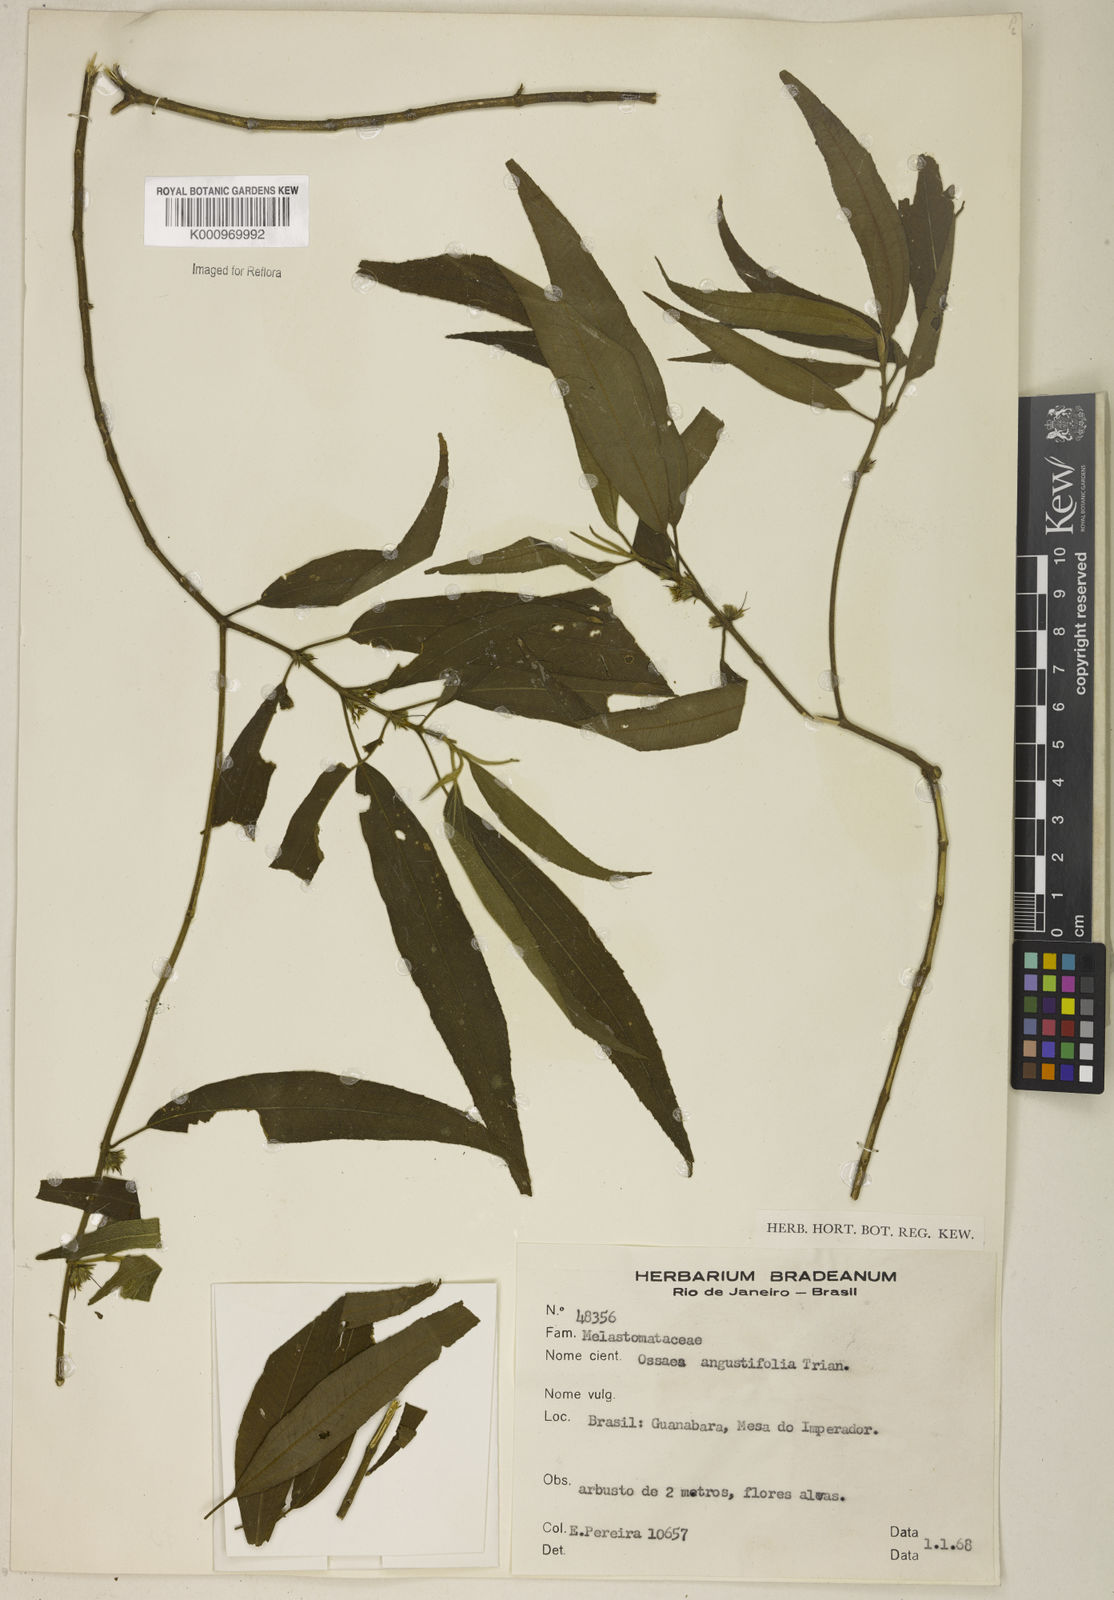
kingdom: Plantae
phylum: Tracheophyta
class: Magnoliopsida
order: Myrtales
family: Melastomataceae
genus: Miconia
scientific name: Miconia corcovadensis
